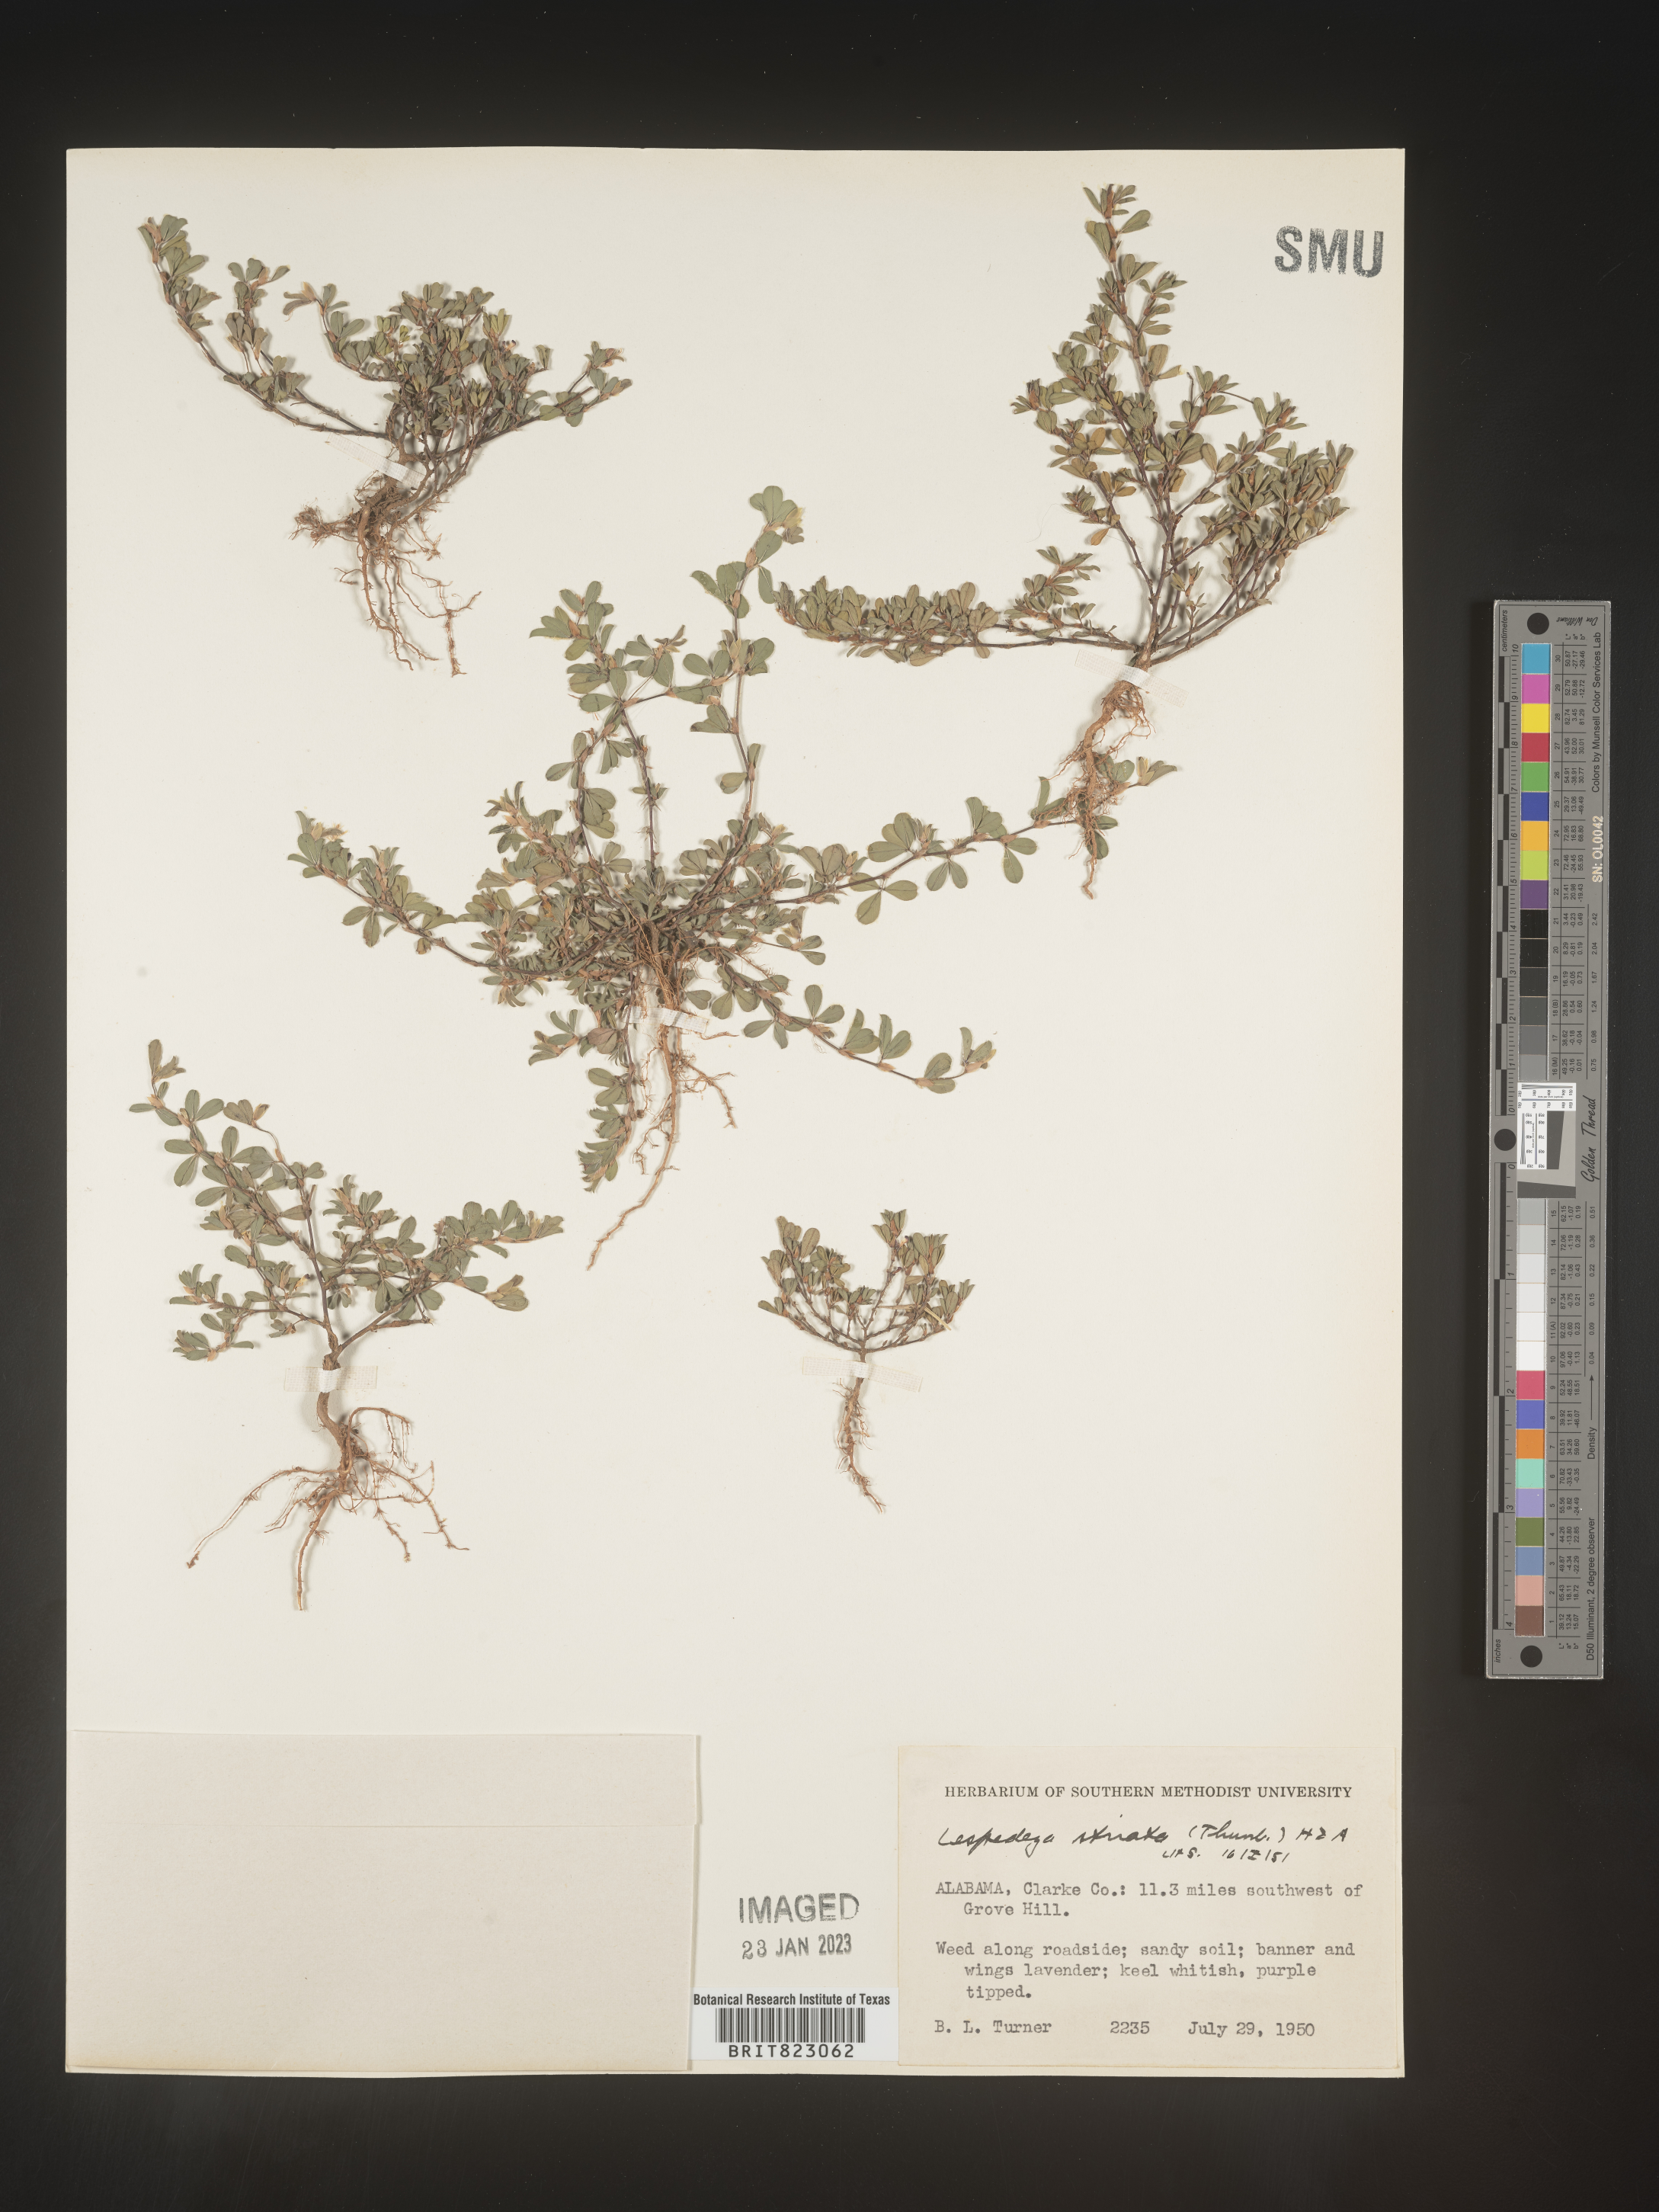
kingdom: Plantae
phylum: Tracheophyta
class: Magnoliopsida
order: Fabales
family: Fabaceae
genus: Kummerowia
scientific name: Kummerowia striata
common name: Japanese clover
